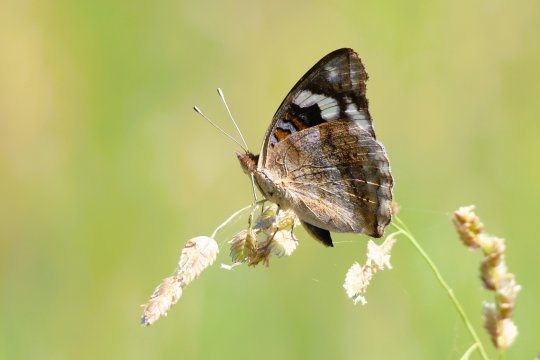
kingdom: Animalia
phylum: Arthropoda
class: Insecta
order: Lepidoptera
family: Nymphalidae
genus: Junonia
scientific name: Junonia oenone
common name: Dark blue pansy
